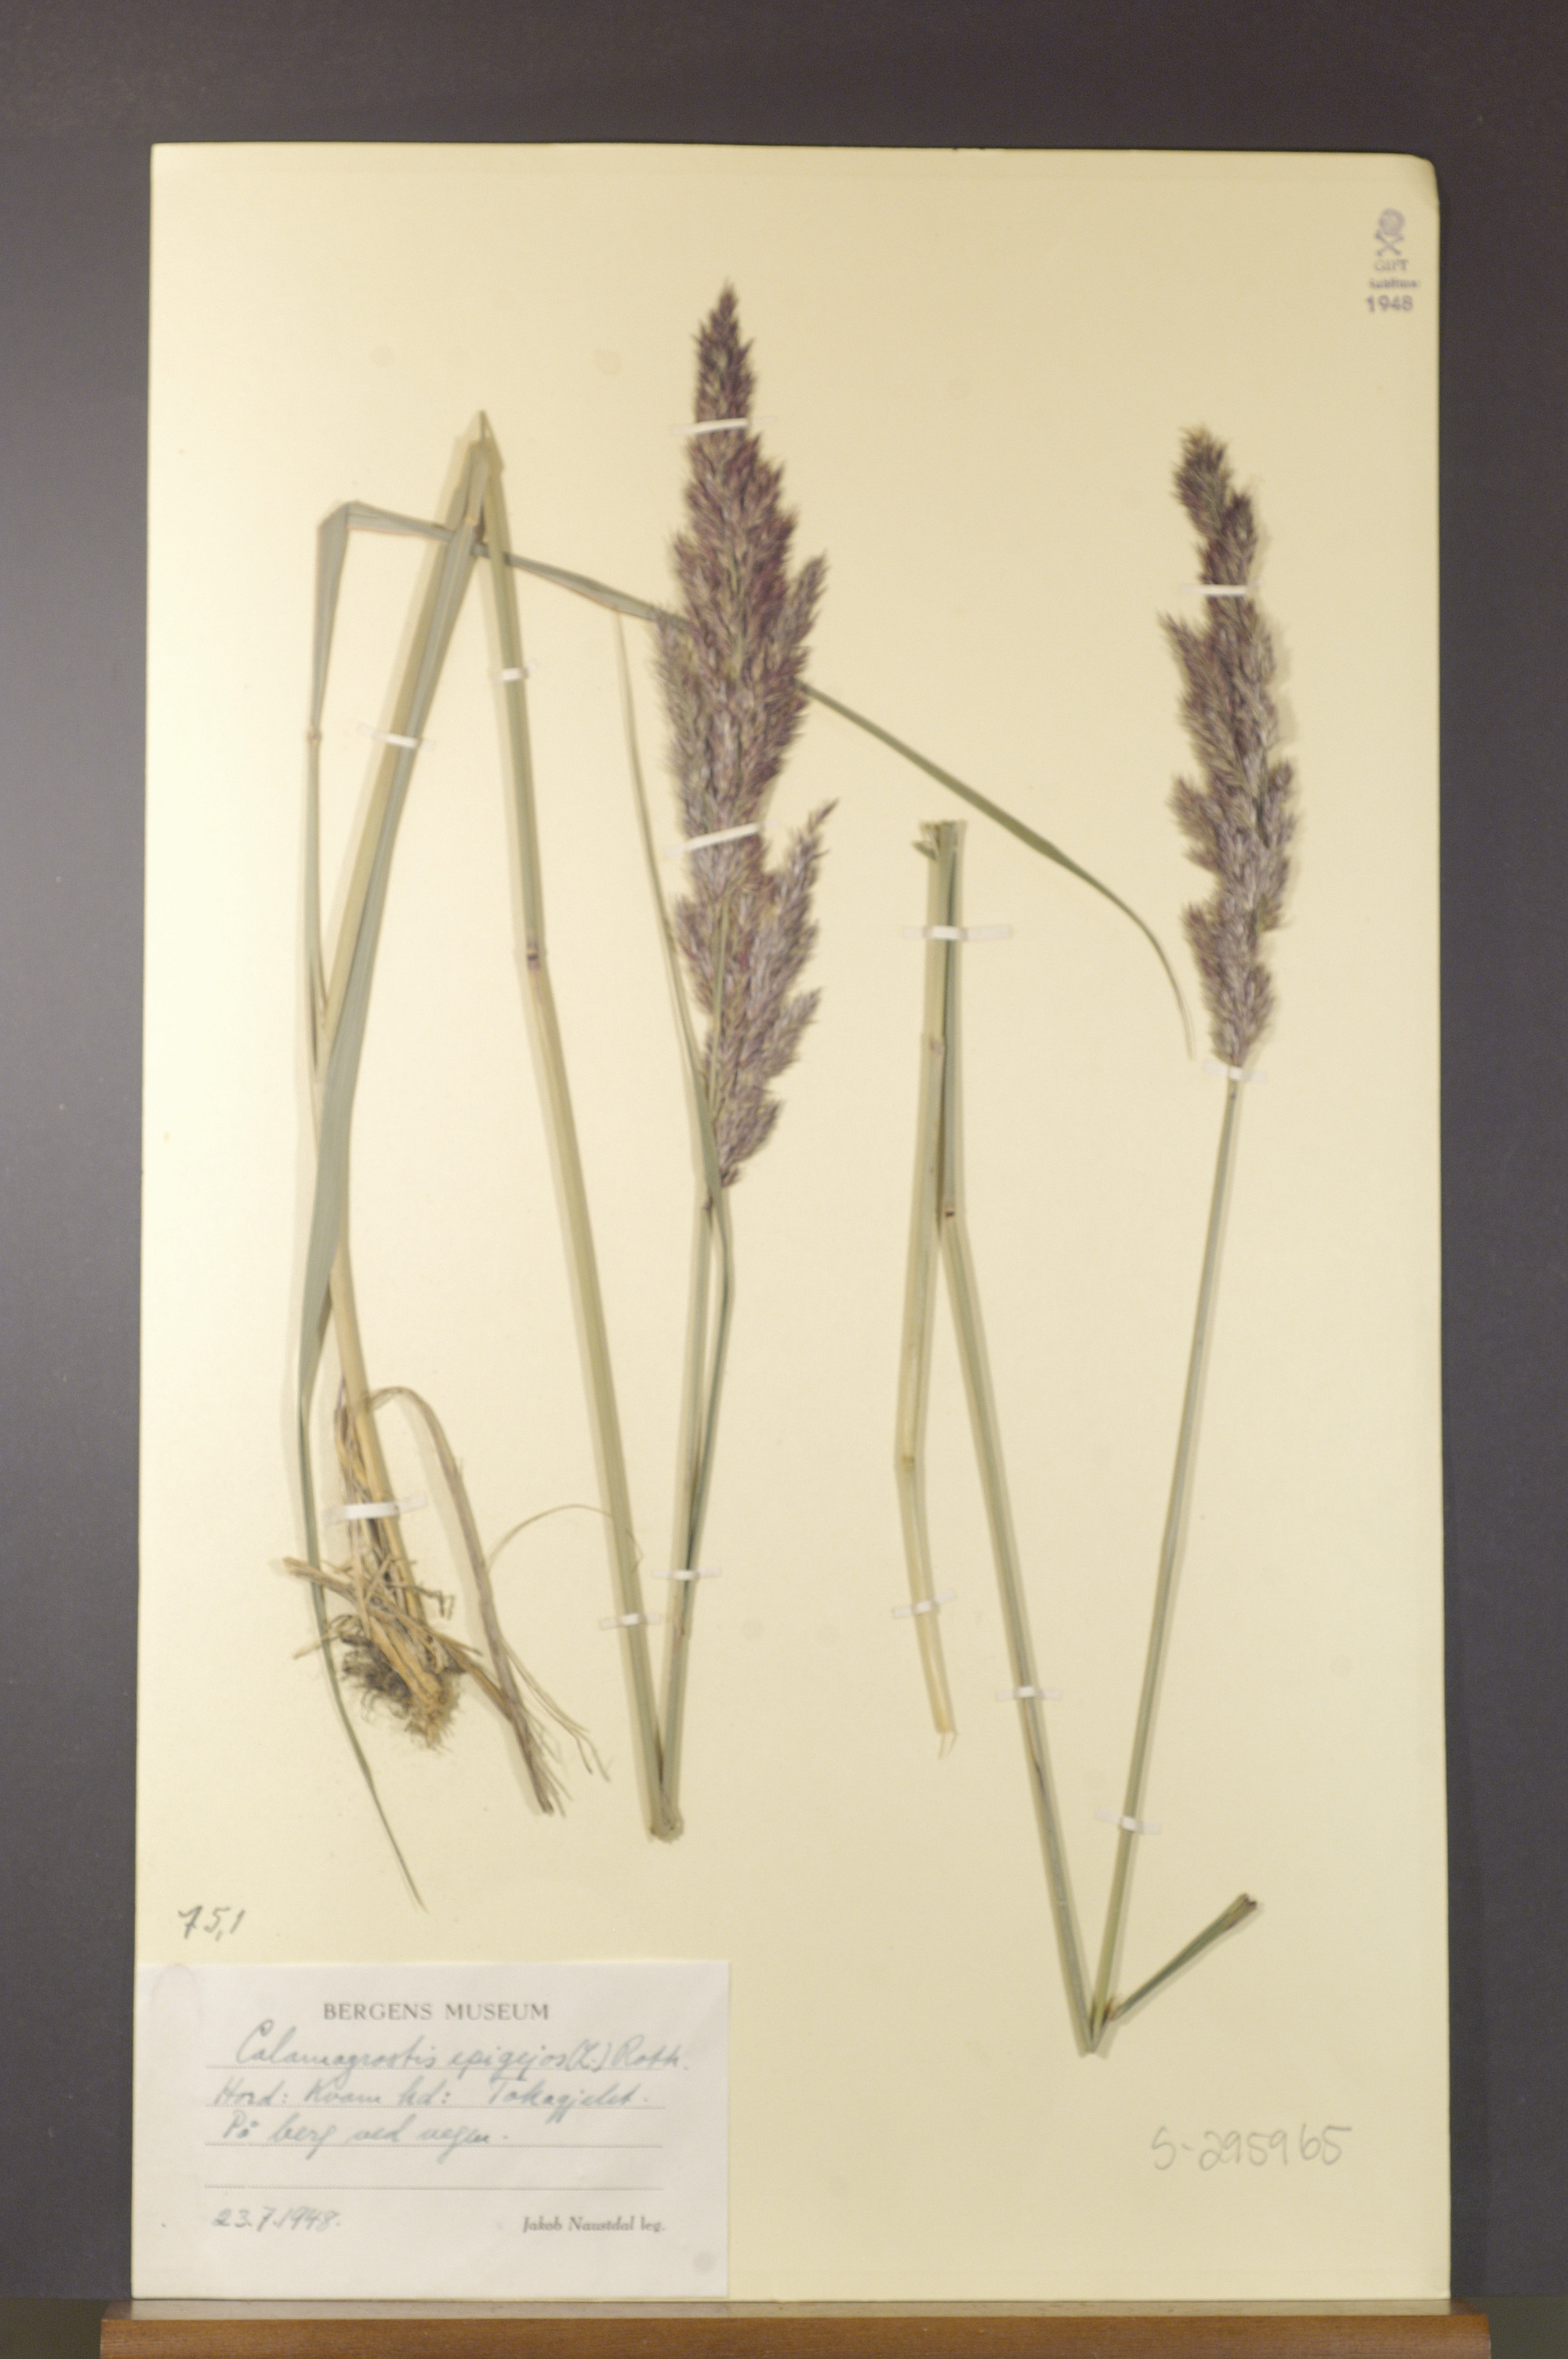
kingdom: Plantae
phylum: Tracheophyta
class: Liliopsida
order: Poales
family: Poaceae
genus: Calamagrostis
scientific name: Calamagrostis epigejos
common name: Wood small-reed
